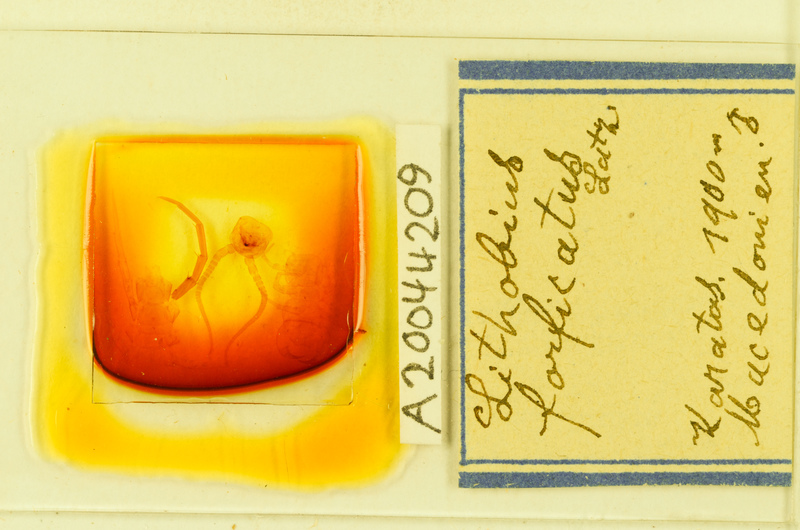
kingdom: Animalia
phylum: Arthropoda
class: Chilopoda
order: Lithobiomorpha
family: Lithobiidae
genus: Lithobius
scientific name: Lithobius forficatus
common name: Centipede
